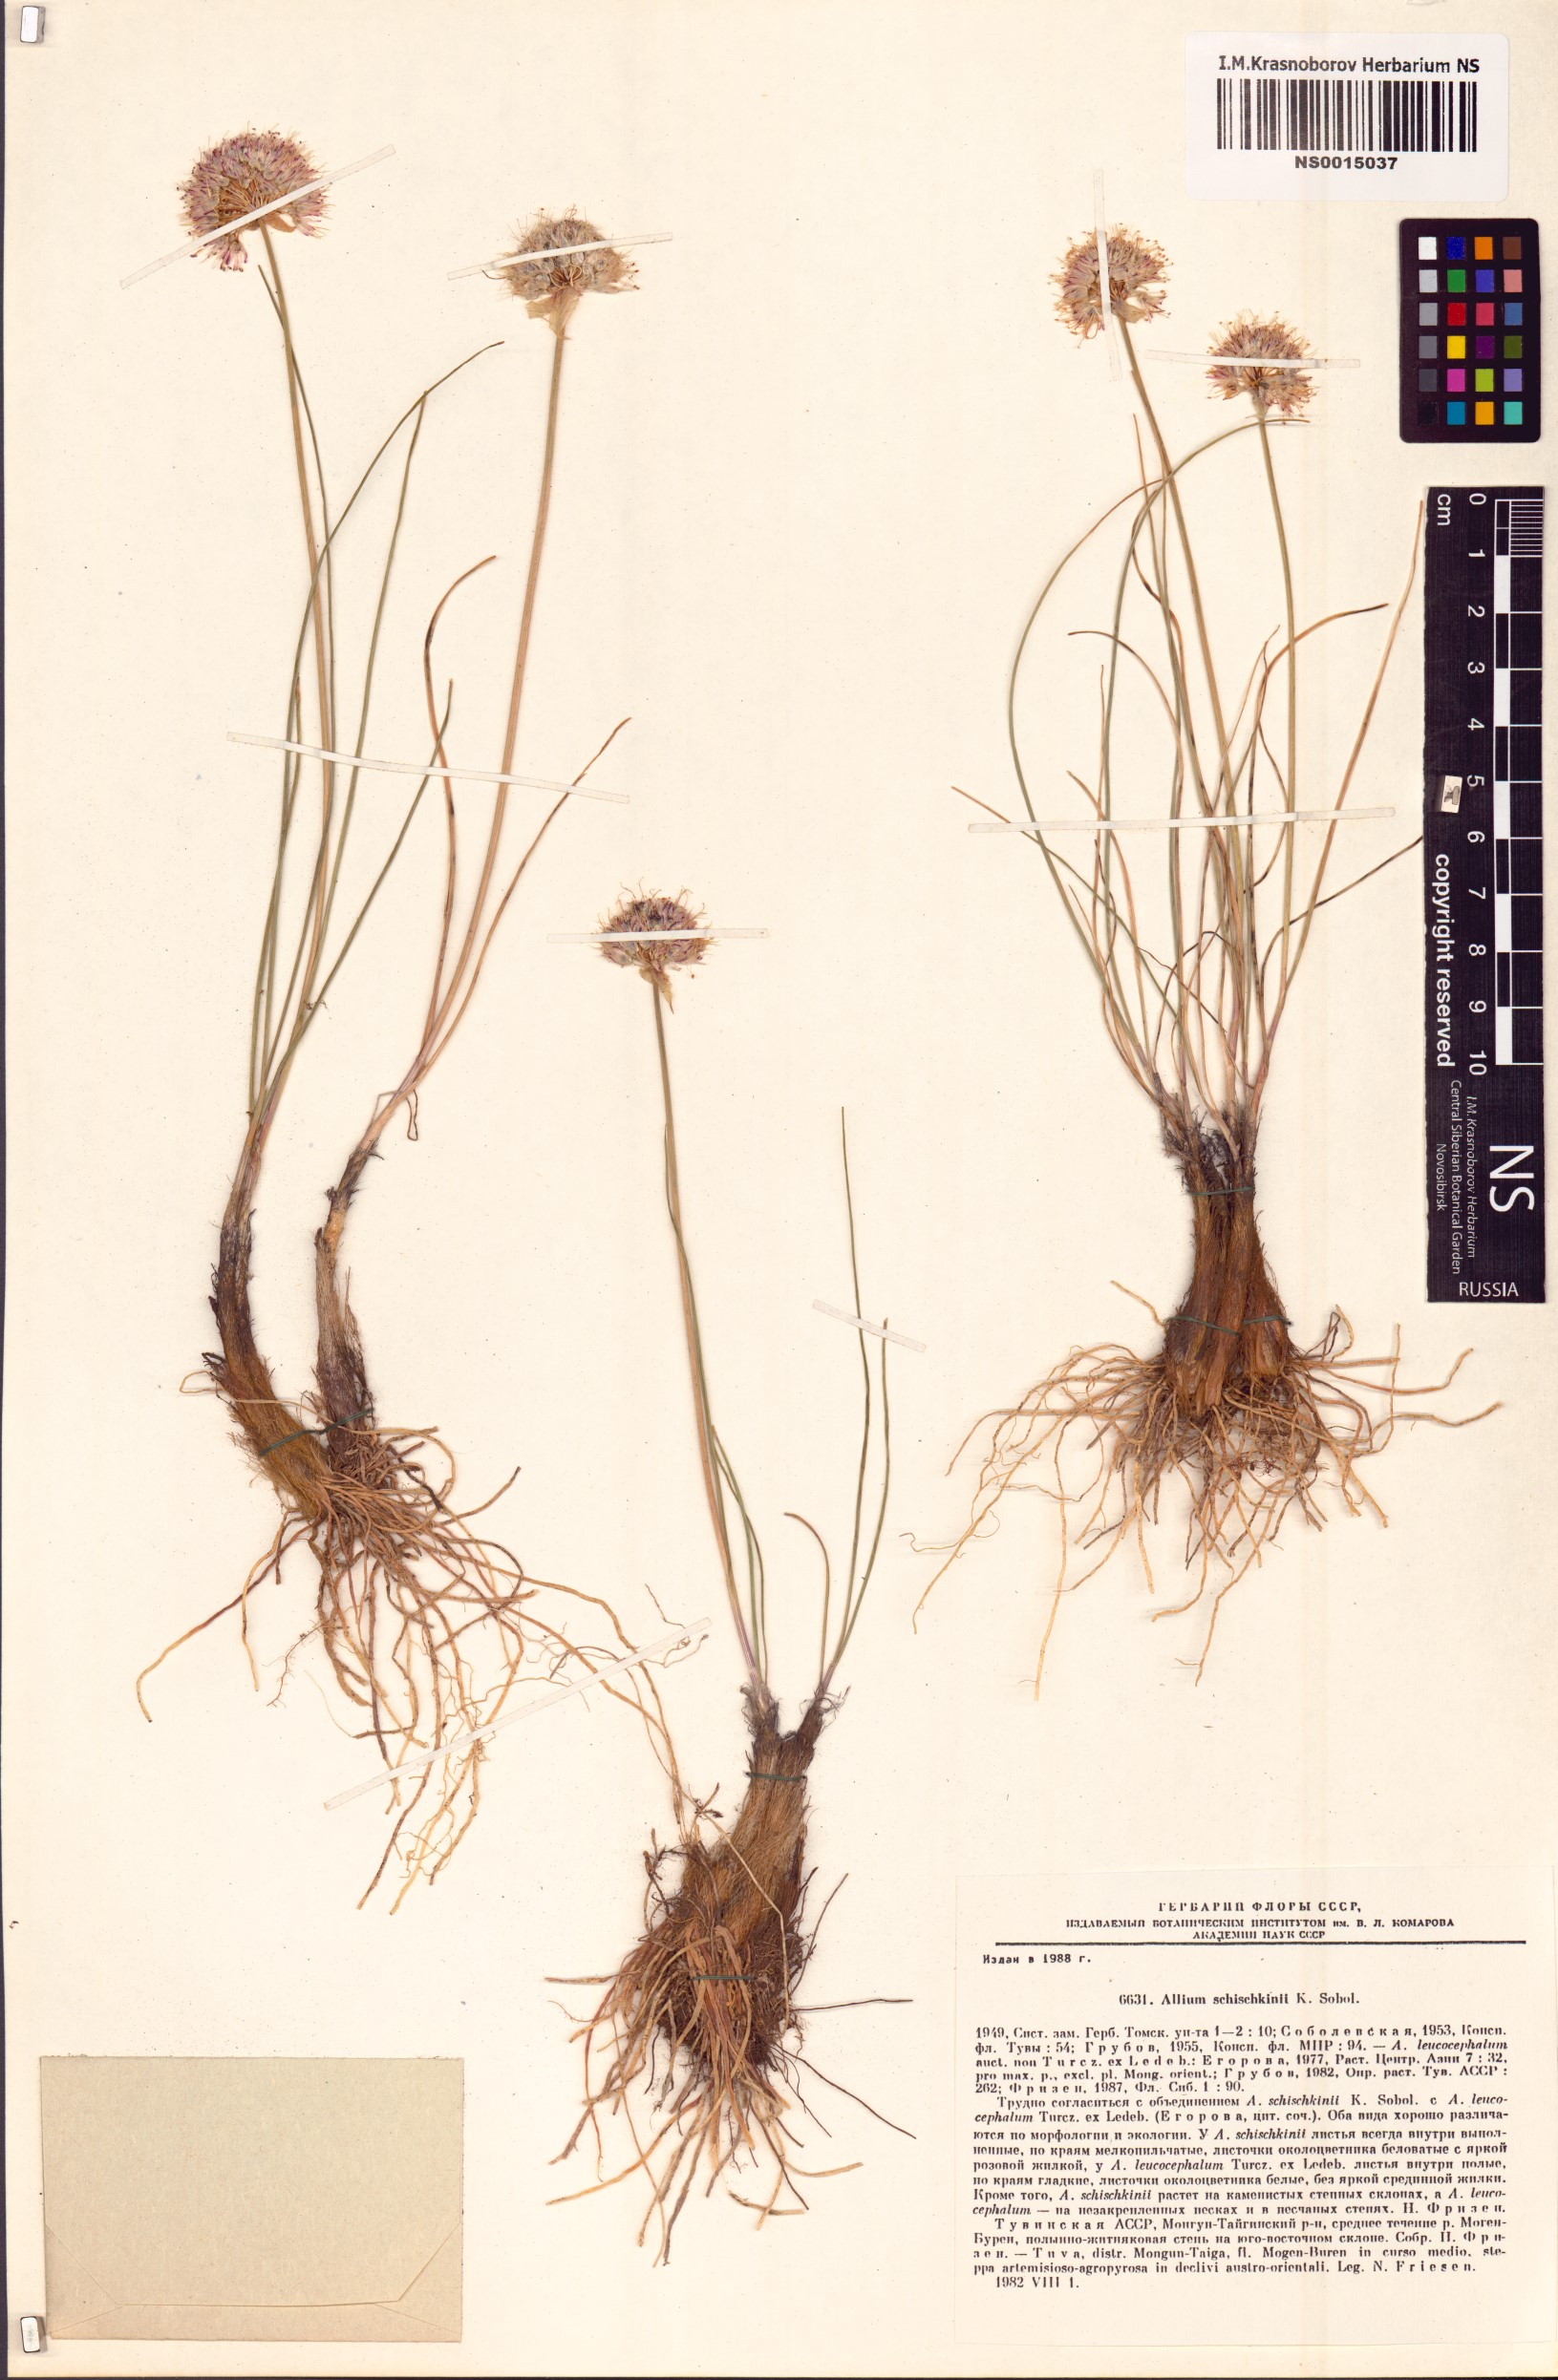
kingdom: Plantae
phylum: Tracheophyta
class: Liliopsida
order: Asparagales
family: Amaryllidaceae
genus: Allium
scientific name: Allium schischkinii
